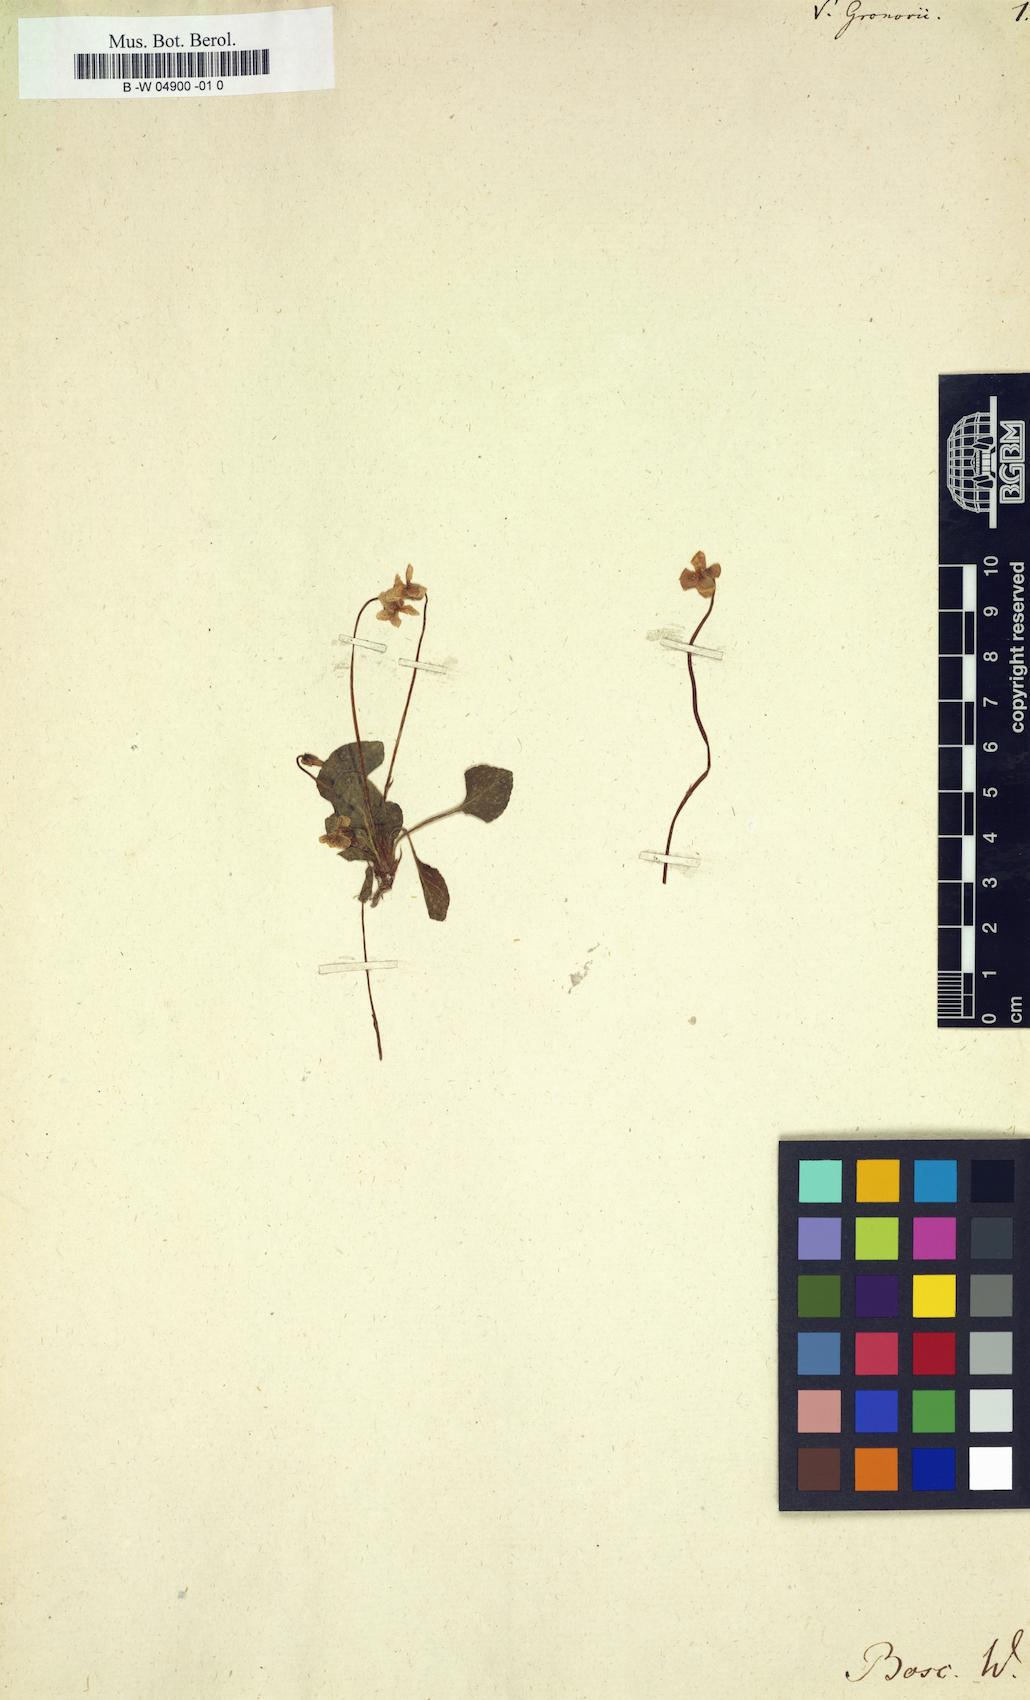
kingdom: Plantae
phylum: Tracheophyta
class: Magnoliopsida
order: Malpighiales
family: Violaceae
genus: Viola
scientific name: Viola primulifolia
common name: Primrose-leaf violet
